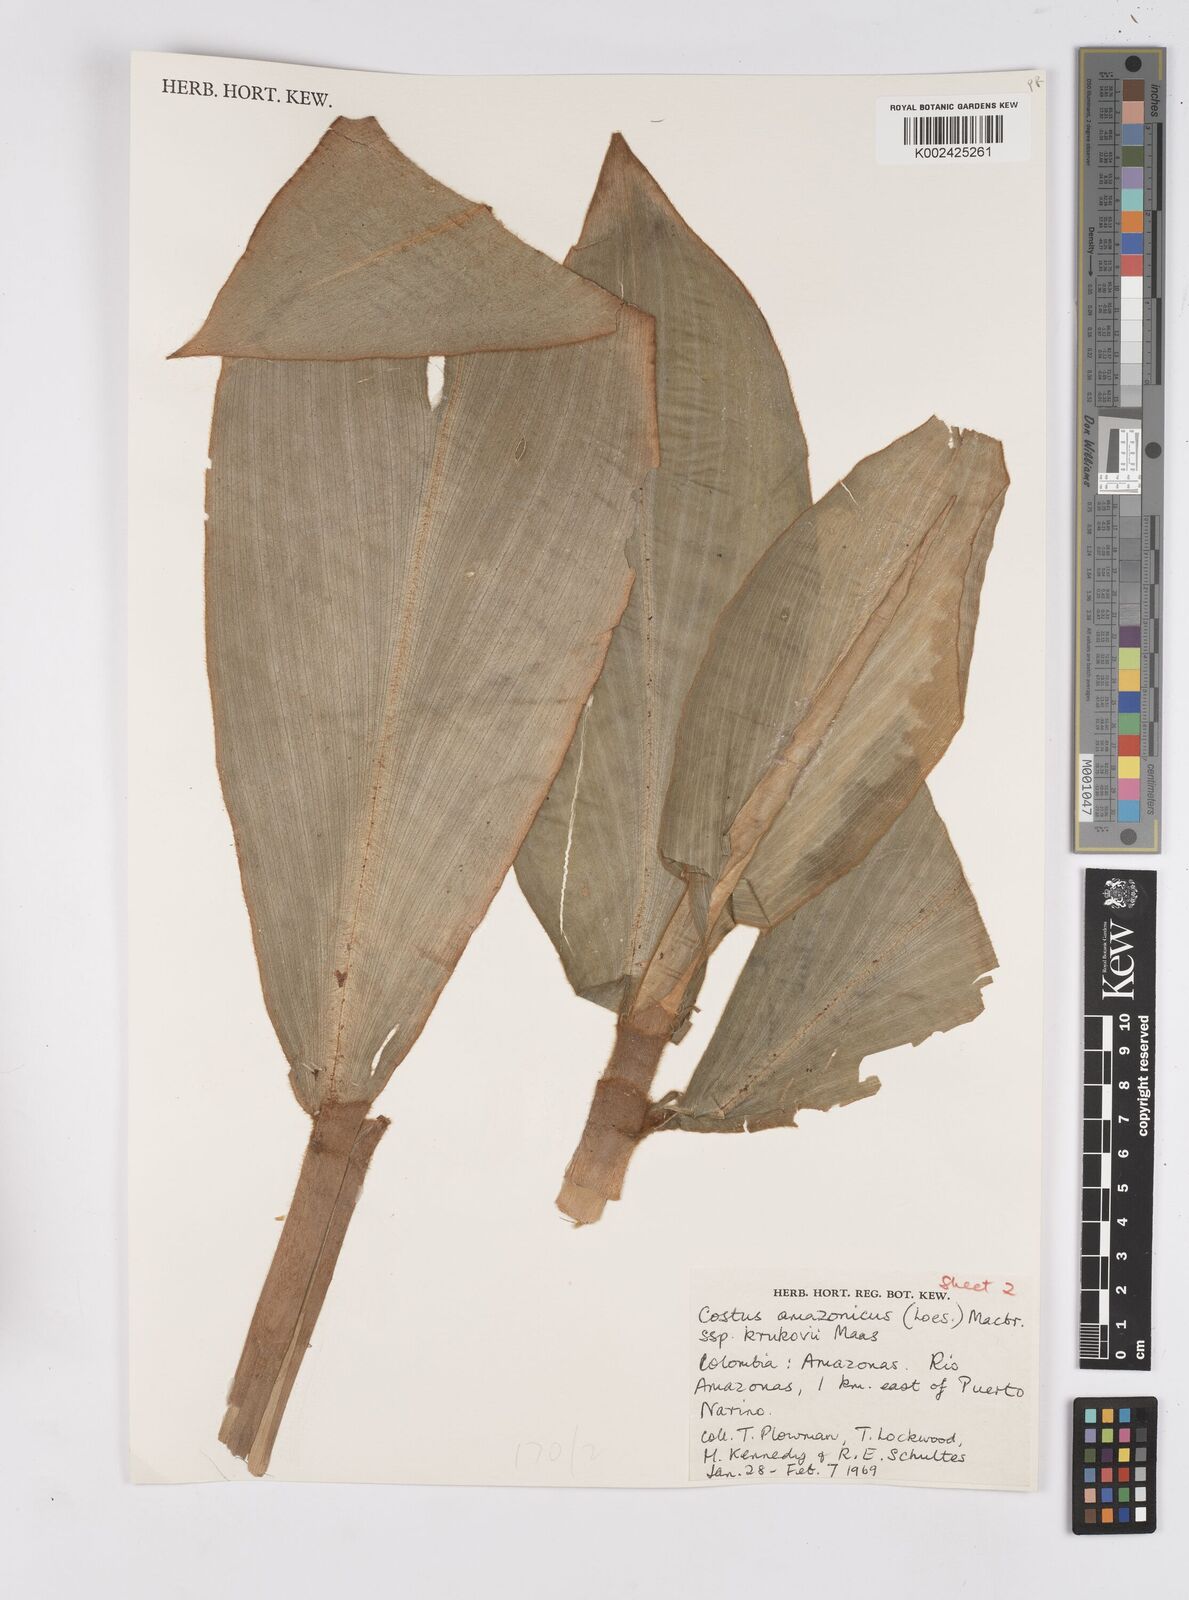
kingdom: Plantae
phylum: Tracheophyta
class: Liliopsida
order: Zingiberales
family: Costaceae
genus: Costus
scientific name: Costus amazonicus
